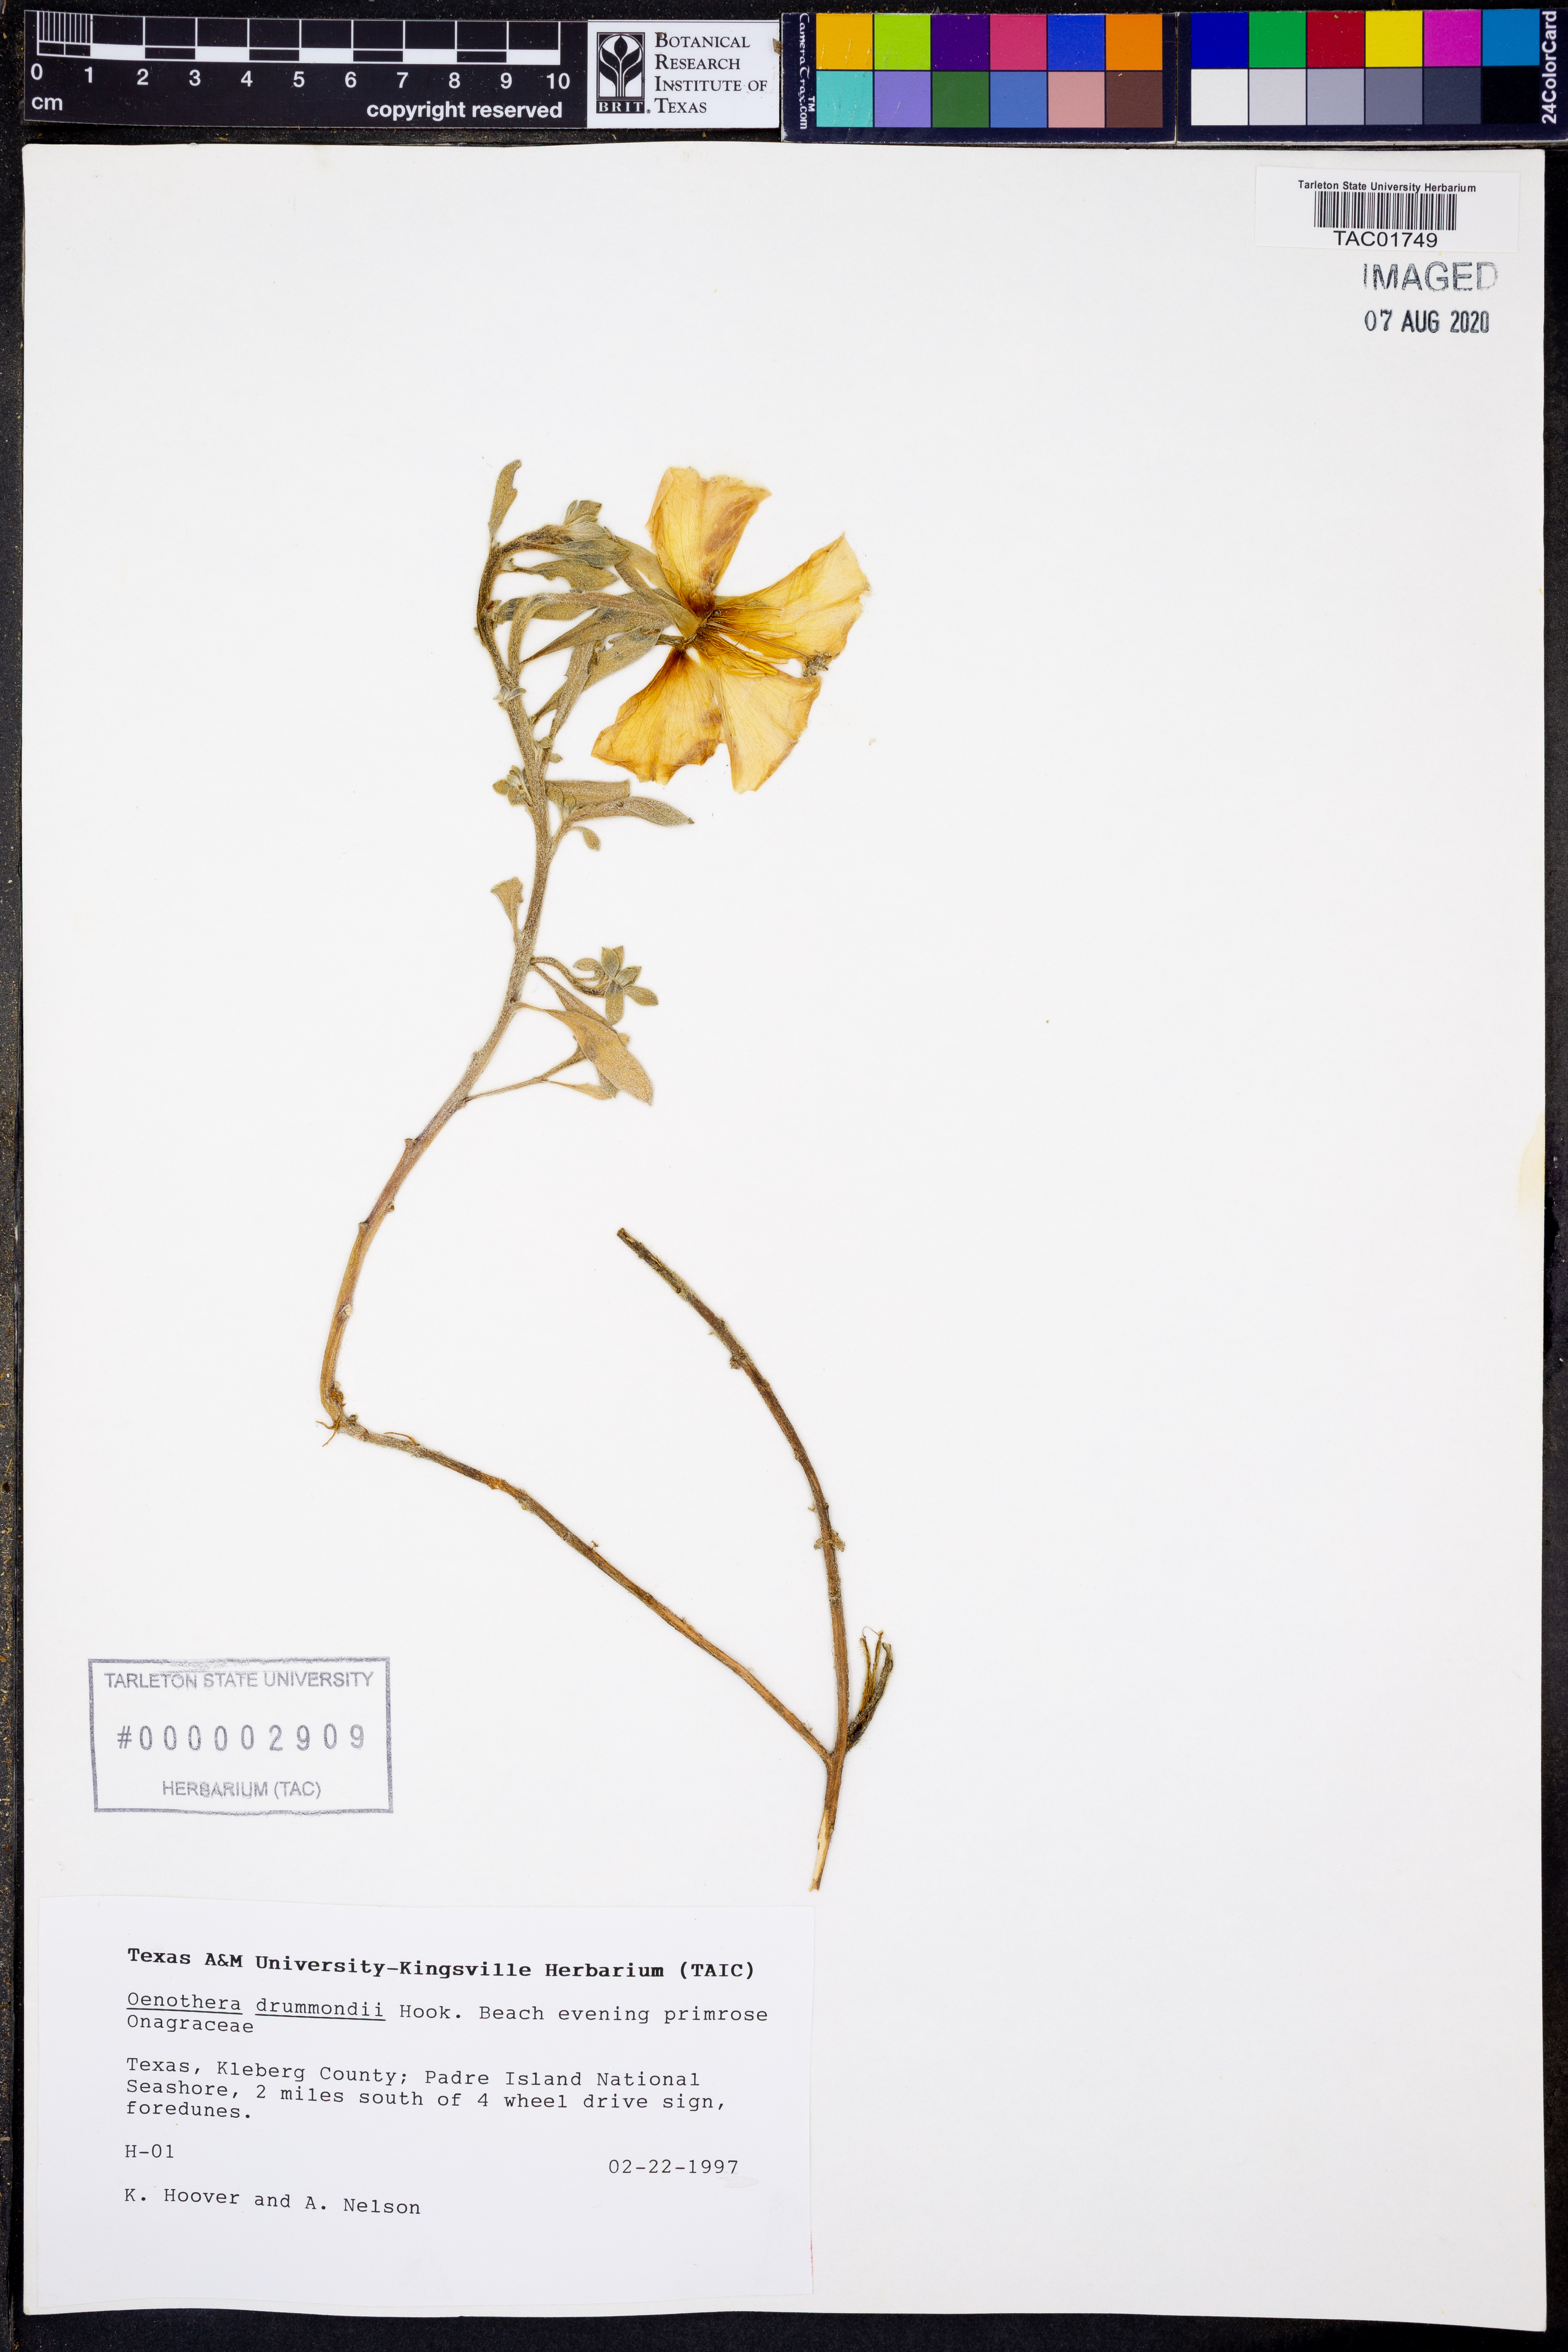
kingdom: Plantae
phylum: Tracheophyta
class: Magnoliopsida
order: Myrtales
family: Onagraceae
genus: Oenothera
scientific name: Oenothera drummondii
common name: Beach evening-primrose
